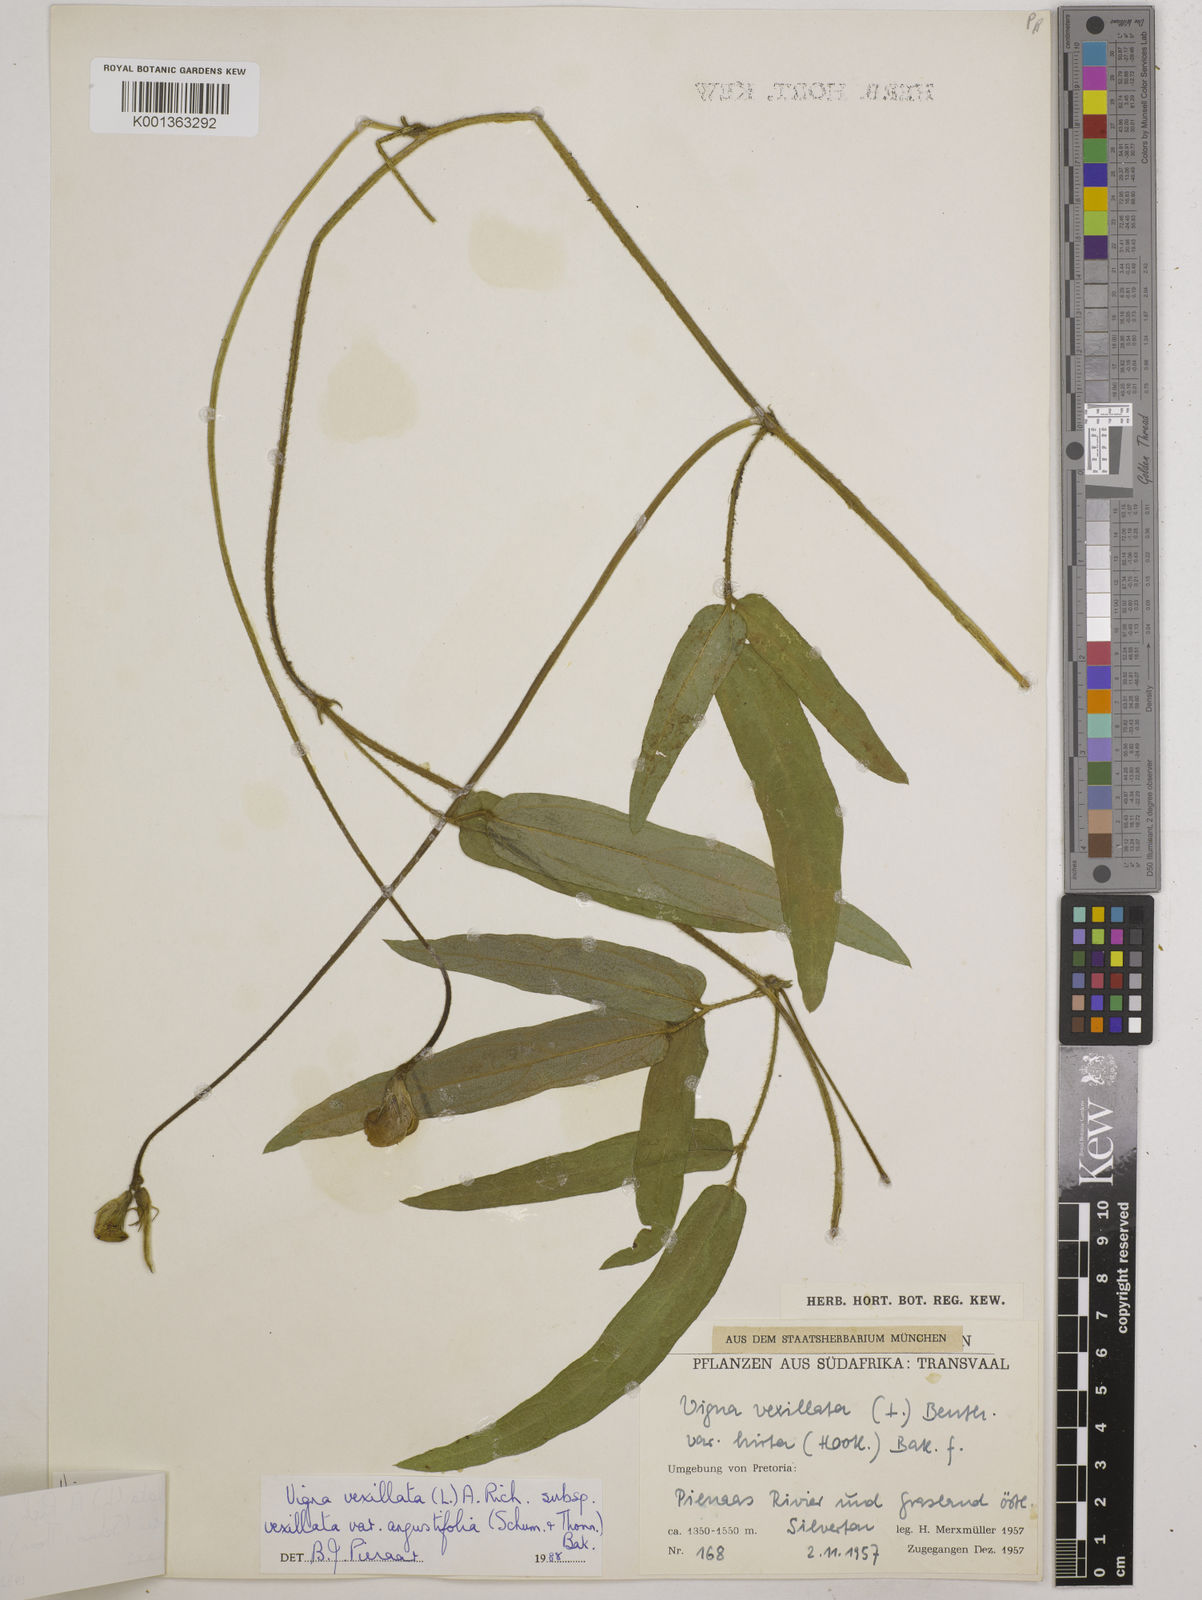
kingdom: Plantae
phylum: Tracheophyta
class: Magnoliopsida
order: Fabales
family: Fabaceae
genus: Vigna
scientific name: Vigna vexillata
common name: Zombi pea
